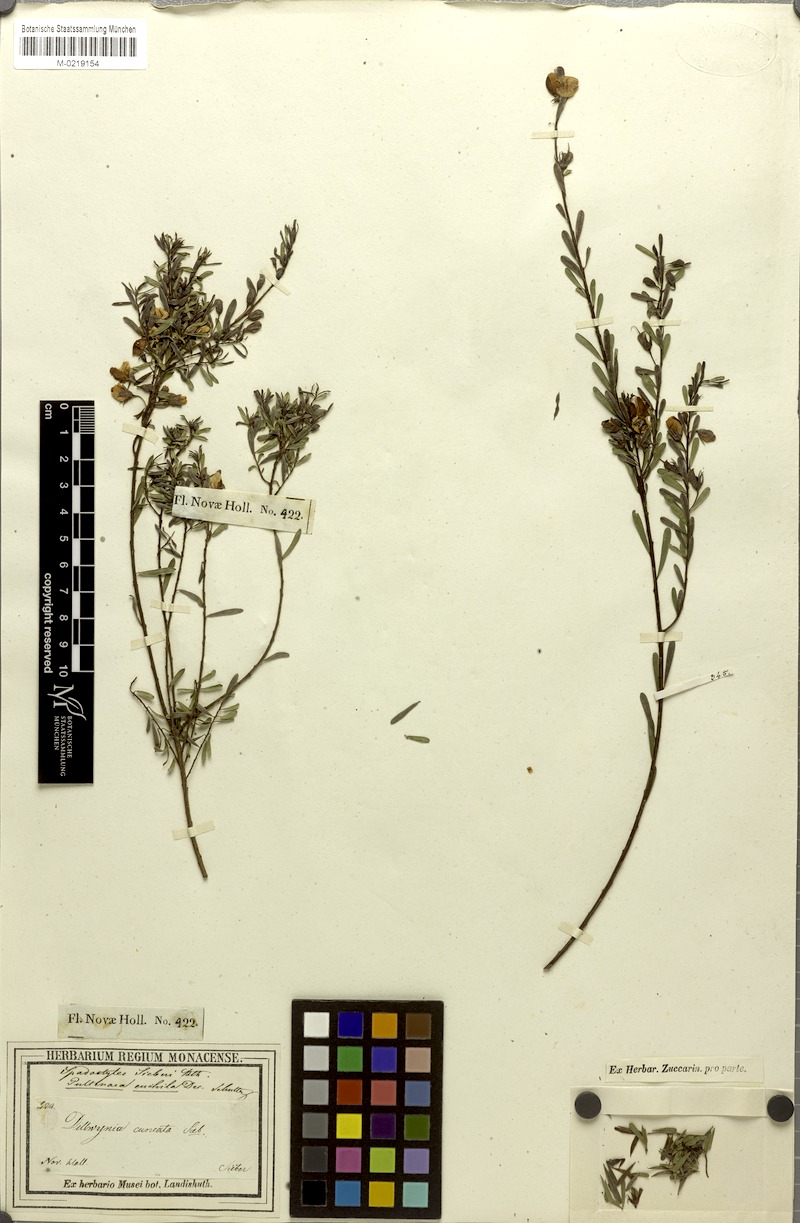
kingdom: Plantae
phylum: Tracheophyta
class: Magnoliopsida
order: Fabales
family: Fabaceae
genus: Pultenaea
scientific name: Pultenaea euchila
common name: Large-flower bush-pea
